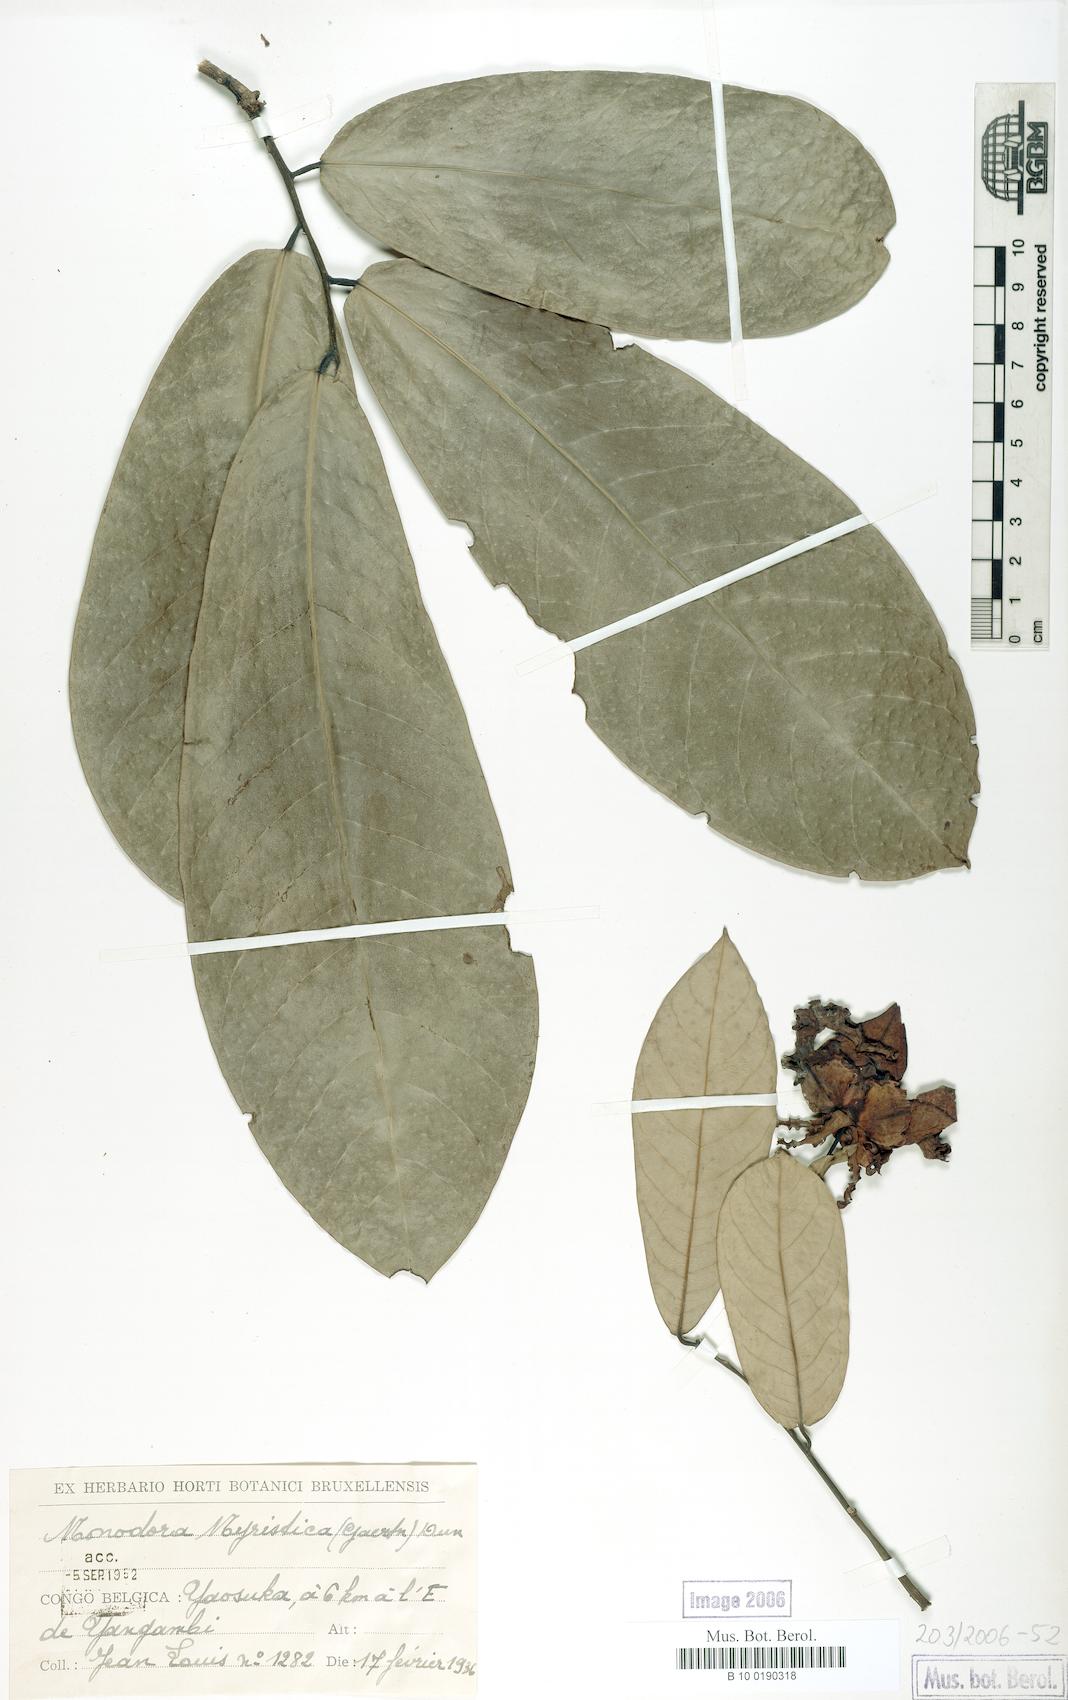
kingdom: Plantae
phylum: Tracheophyta
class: Magnoliopsida
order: Magnoliales
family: Annonaceae
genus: Monodora
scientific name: Monodora myristica
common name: African nutmeg
